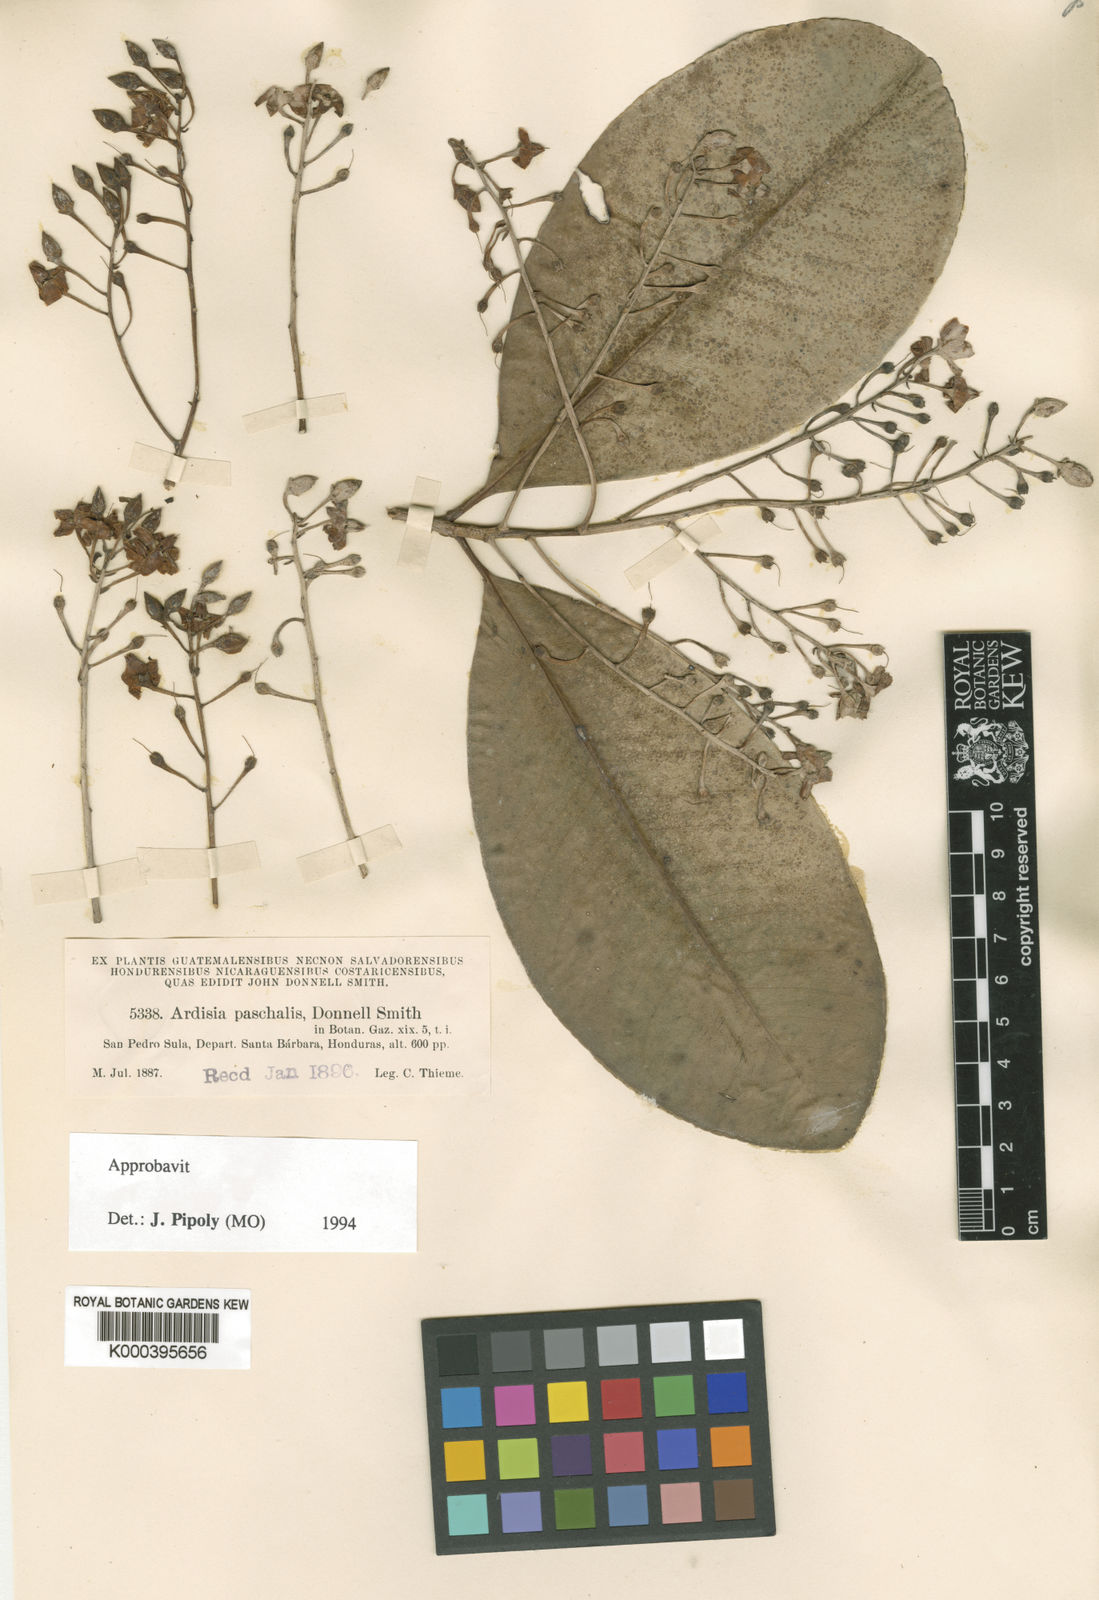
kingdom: Plantae
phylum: Tracheophyta
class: Magnoliopsida
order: Ericales
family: Primulaceae
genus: Ardisia
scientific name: Ardisia paschalis
